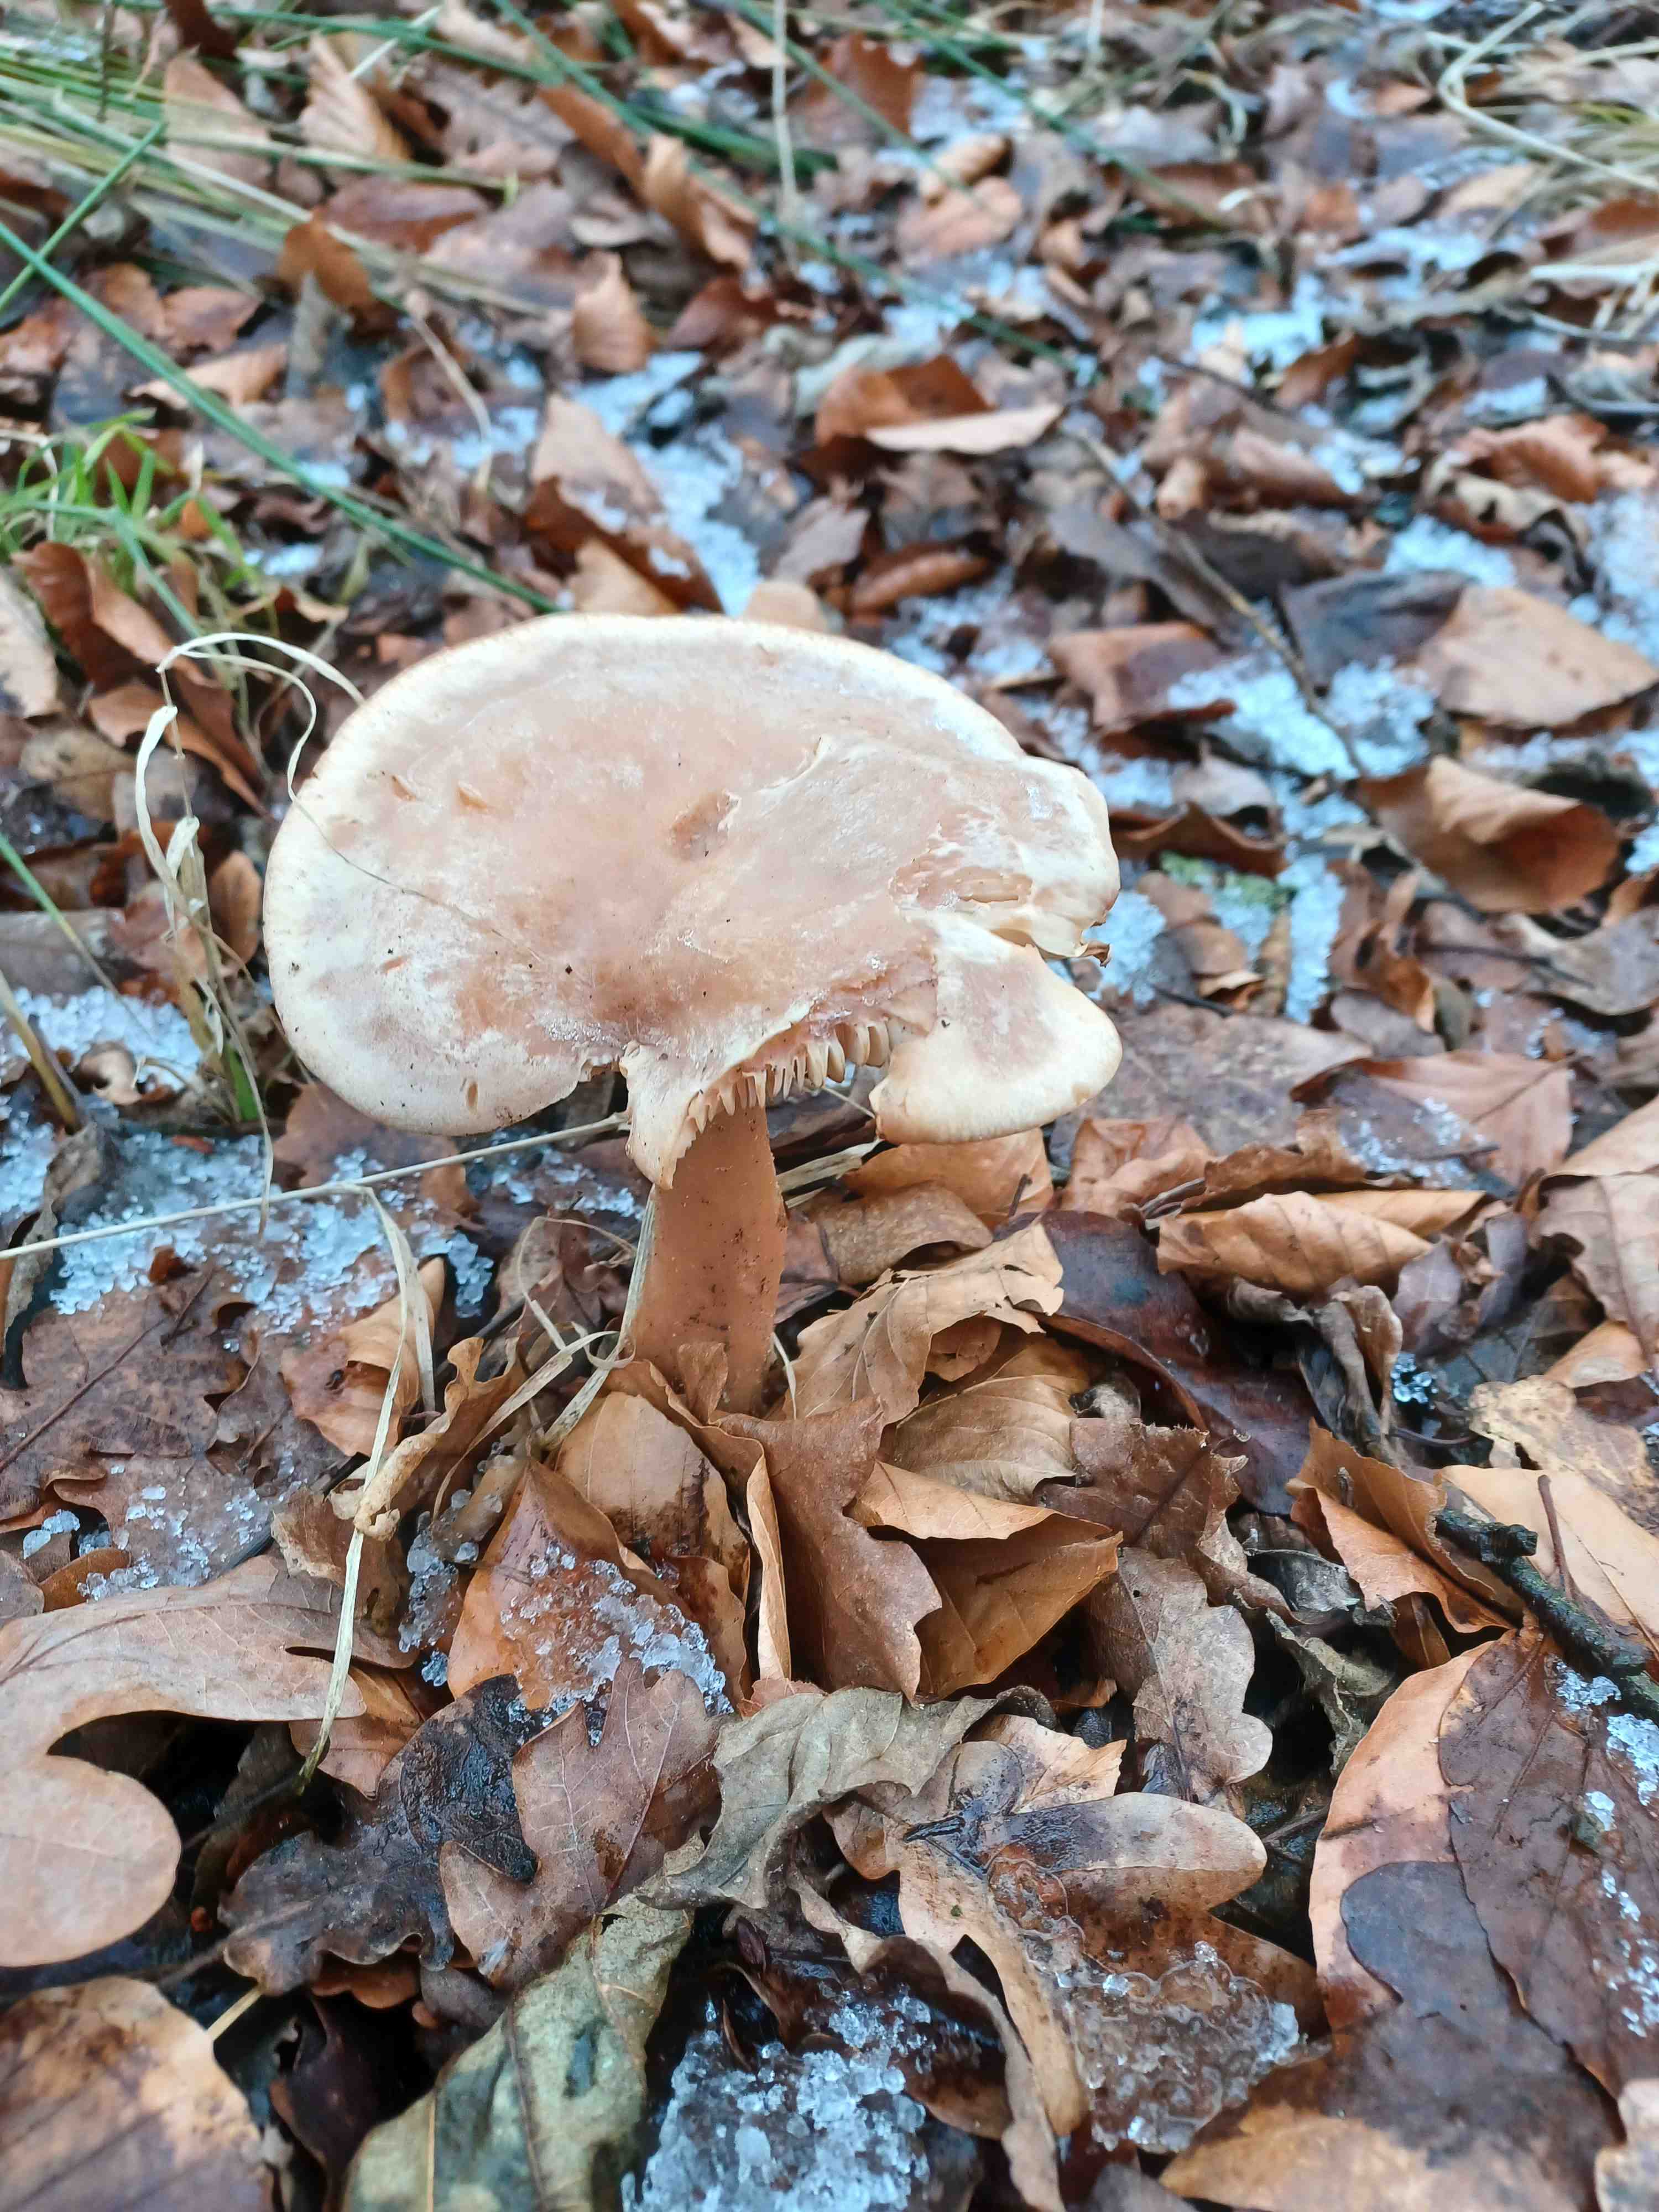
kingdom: Fungi
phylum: Basidiomycota
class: Agaricomycetes
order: Agaricales
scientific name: Agaricales
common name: champignonordenen
